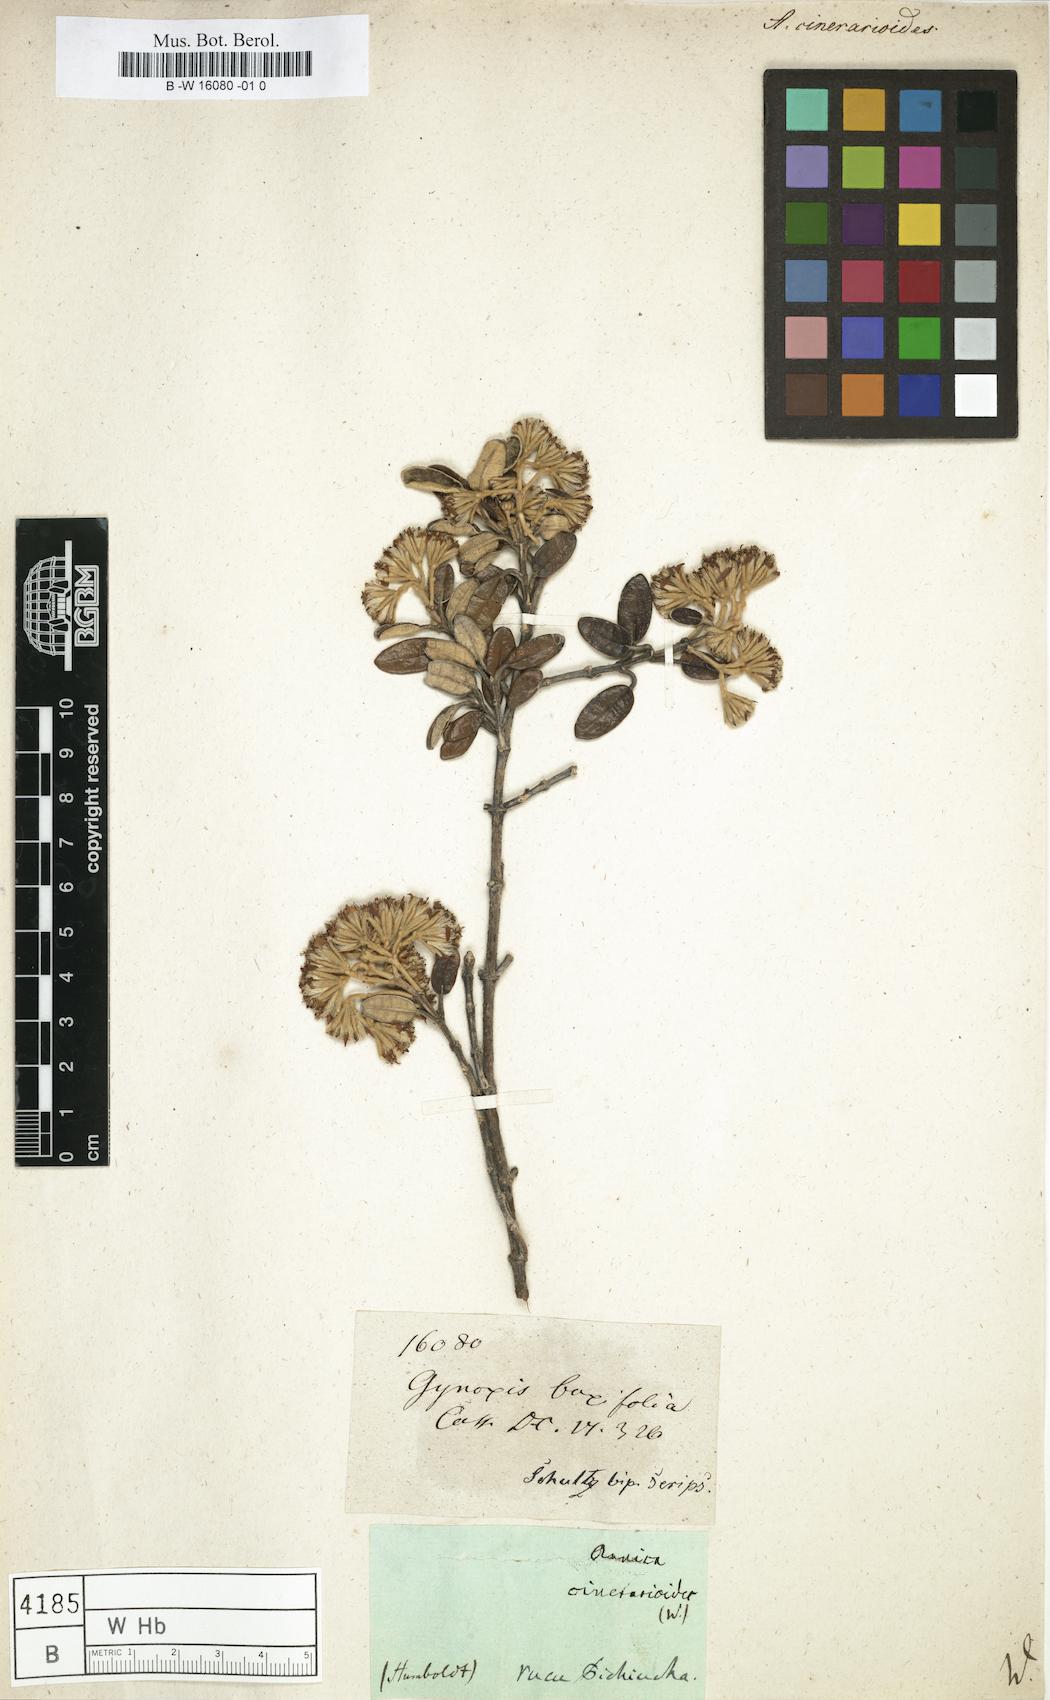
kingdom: Plantae
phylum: Tracheophyta
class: Magnoliopsida
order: Asterales
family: Asteraceae
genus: Arnica
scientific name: Arnica
